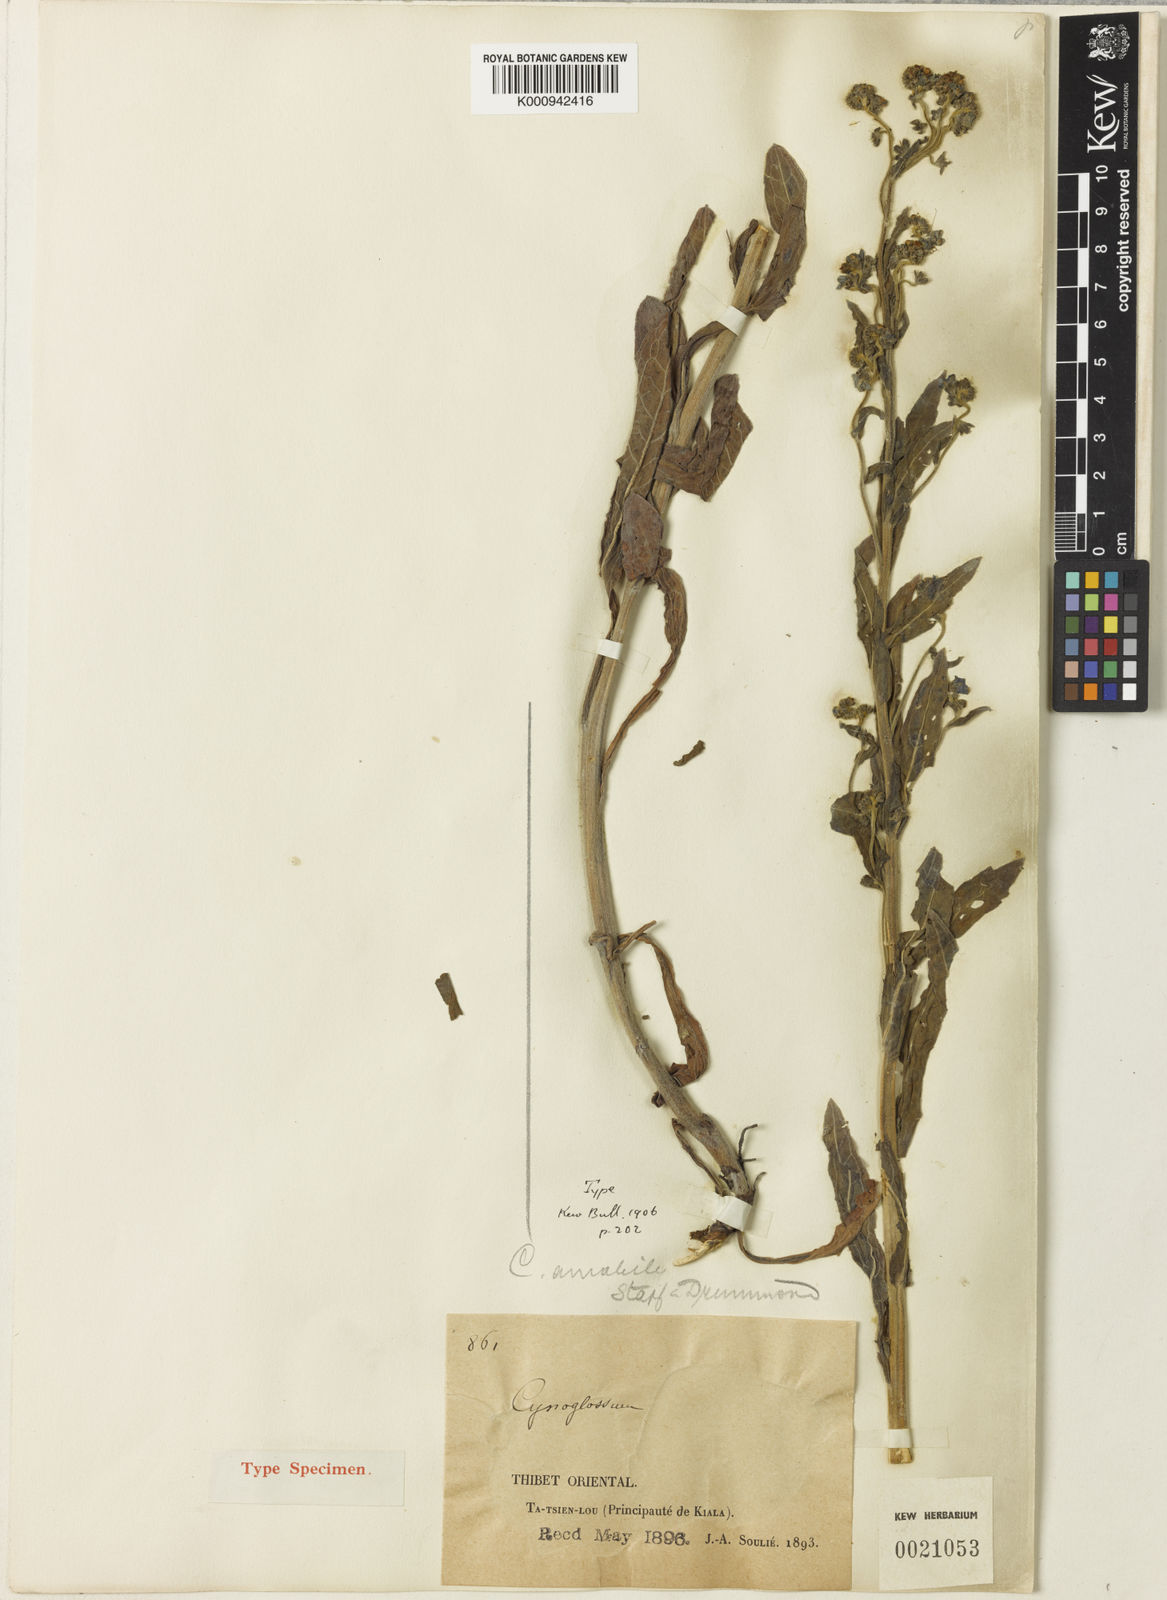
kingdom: Plantae
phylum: Tracheophyta
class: Magnoliopsida
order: Boraginales
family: Boraginaceae
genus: Cynoglossum
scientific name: Cynoglossum amabile
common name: Chinese hound's tongue
